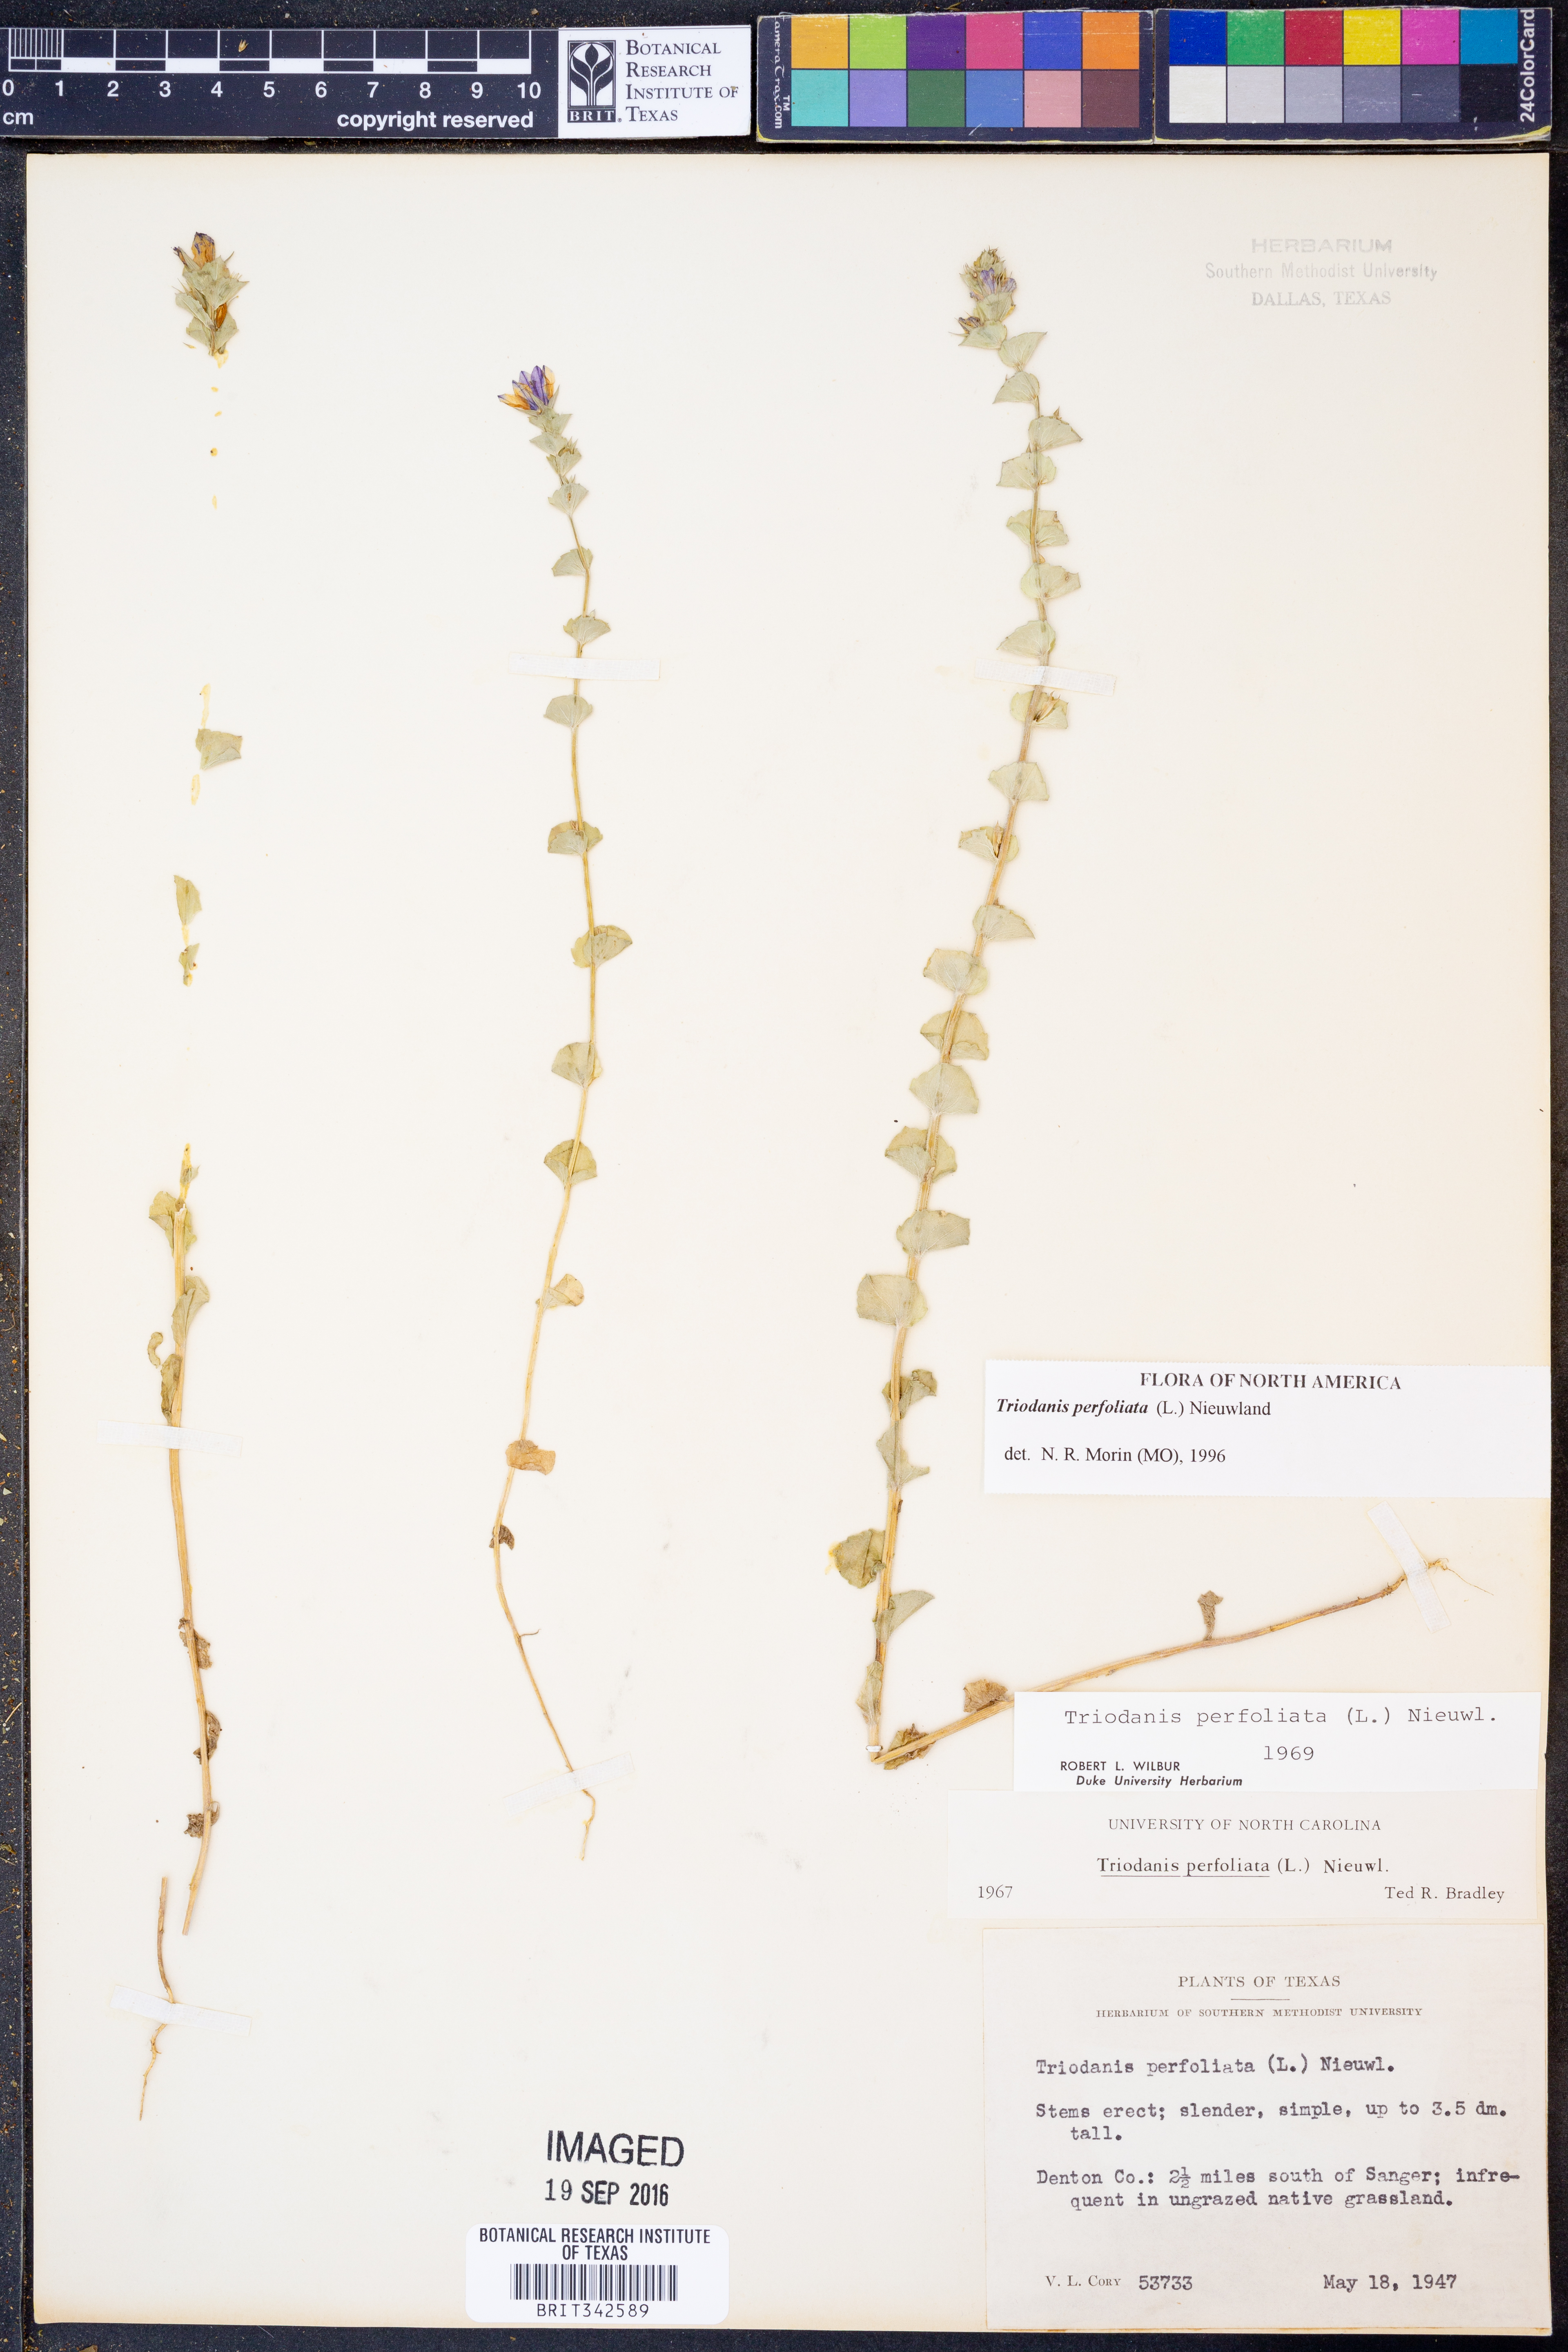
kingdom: Plantae
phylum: Tracheophyta
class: Magnoliopsida
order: Asterales
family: Campanulaceae
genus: Triodanis
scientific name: Triodanis perfoliata
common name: Clasping venus' looking-glass
